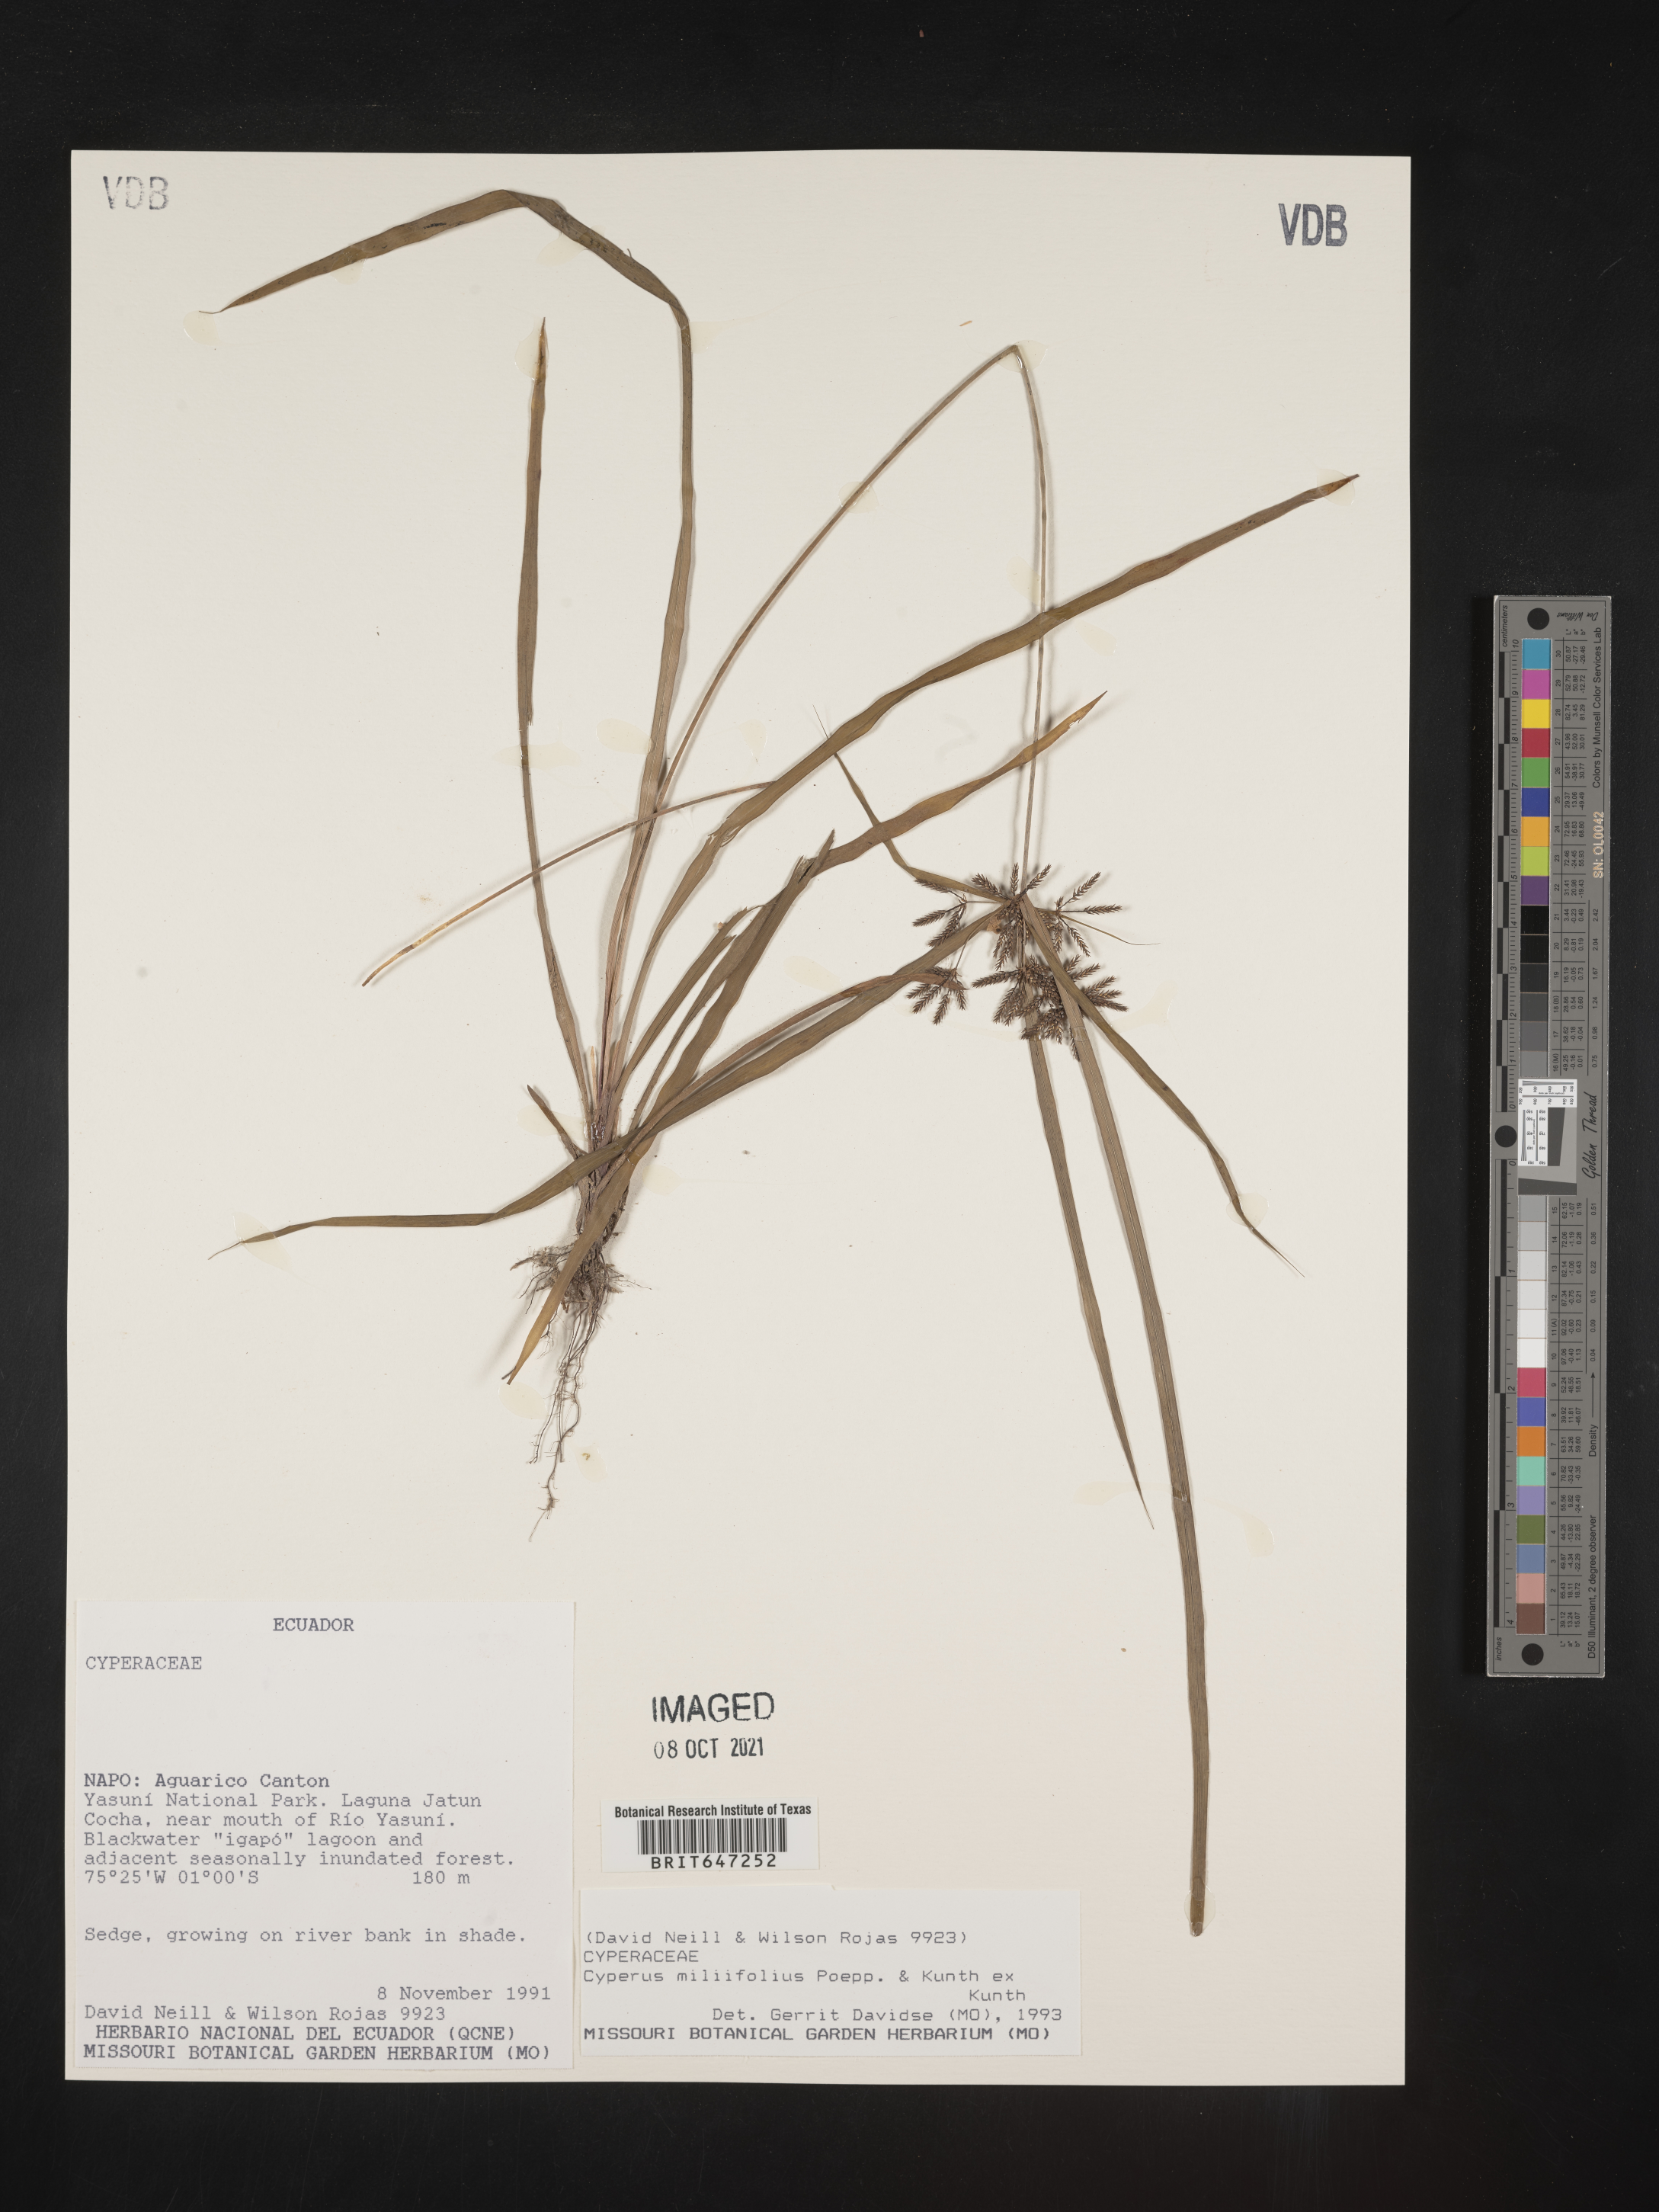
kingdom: Plantae
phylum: Tracheophyta
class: Liliopsida
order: Poales
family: Cyperaceae
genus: Cyperus
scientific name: Cyperus miliifolius
